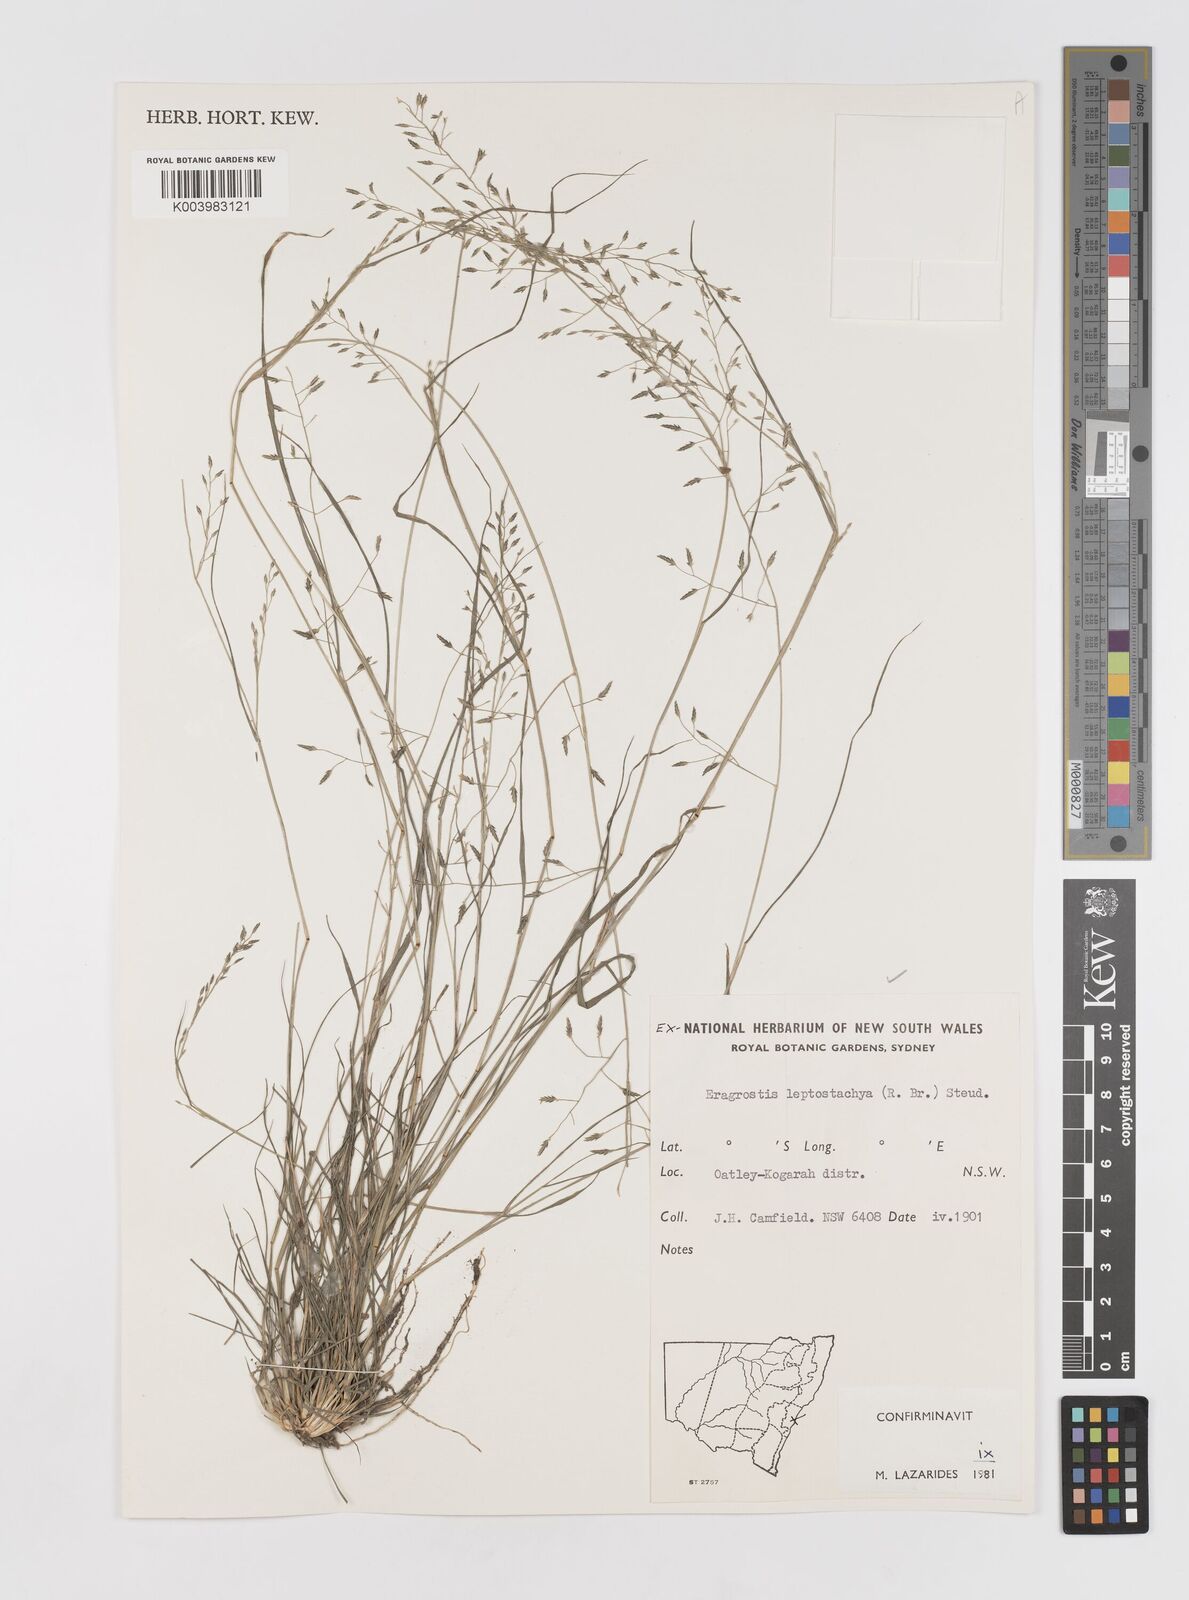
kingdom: Plantae
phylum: Tracheophyta
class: Liliopsida
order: Poales
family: Poaceae
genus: Eragrostis
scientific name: Eragrostis leptostachya
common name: Australian lovegrass
